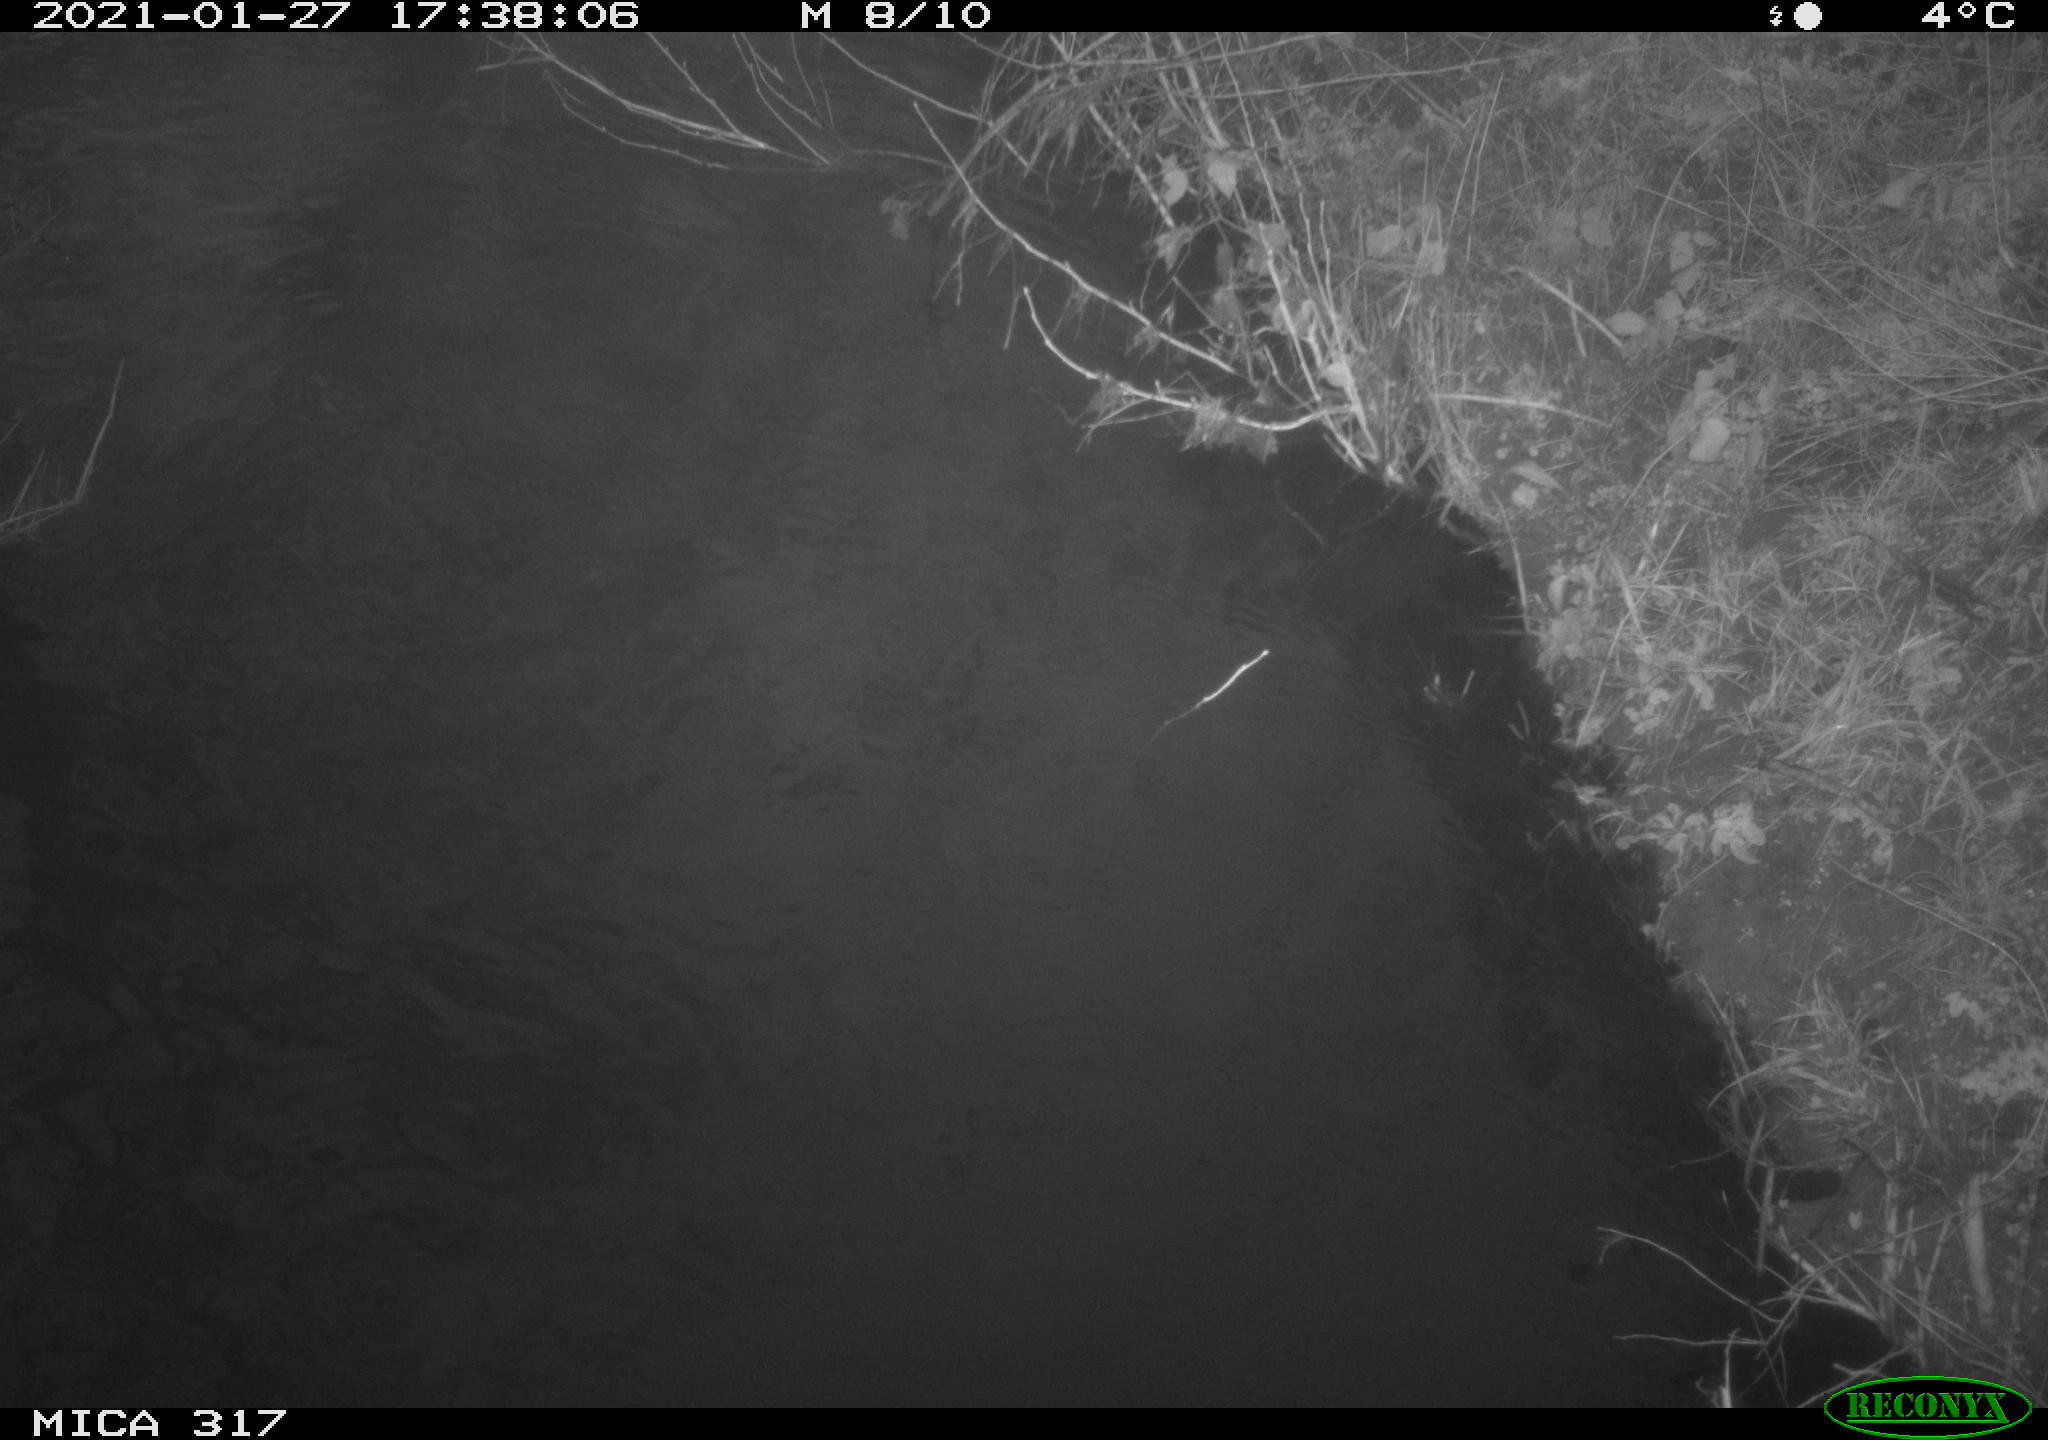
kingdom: Animalia
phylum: Chordata
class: Aves
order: Gruiformes
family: Rallidae
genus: Fulica
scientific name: Fulica atra
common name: Eurasian coot
